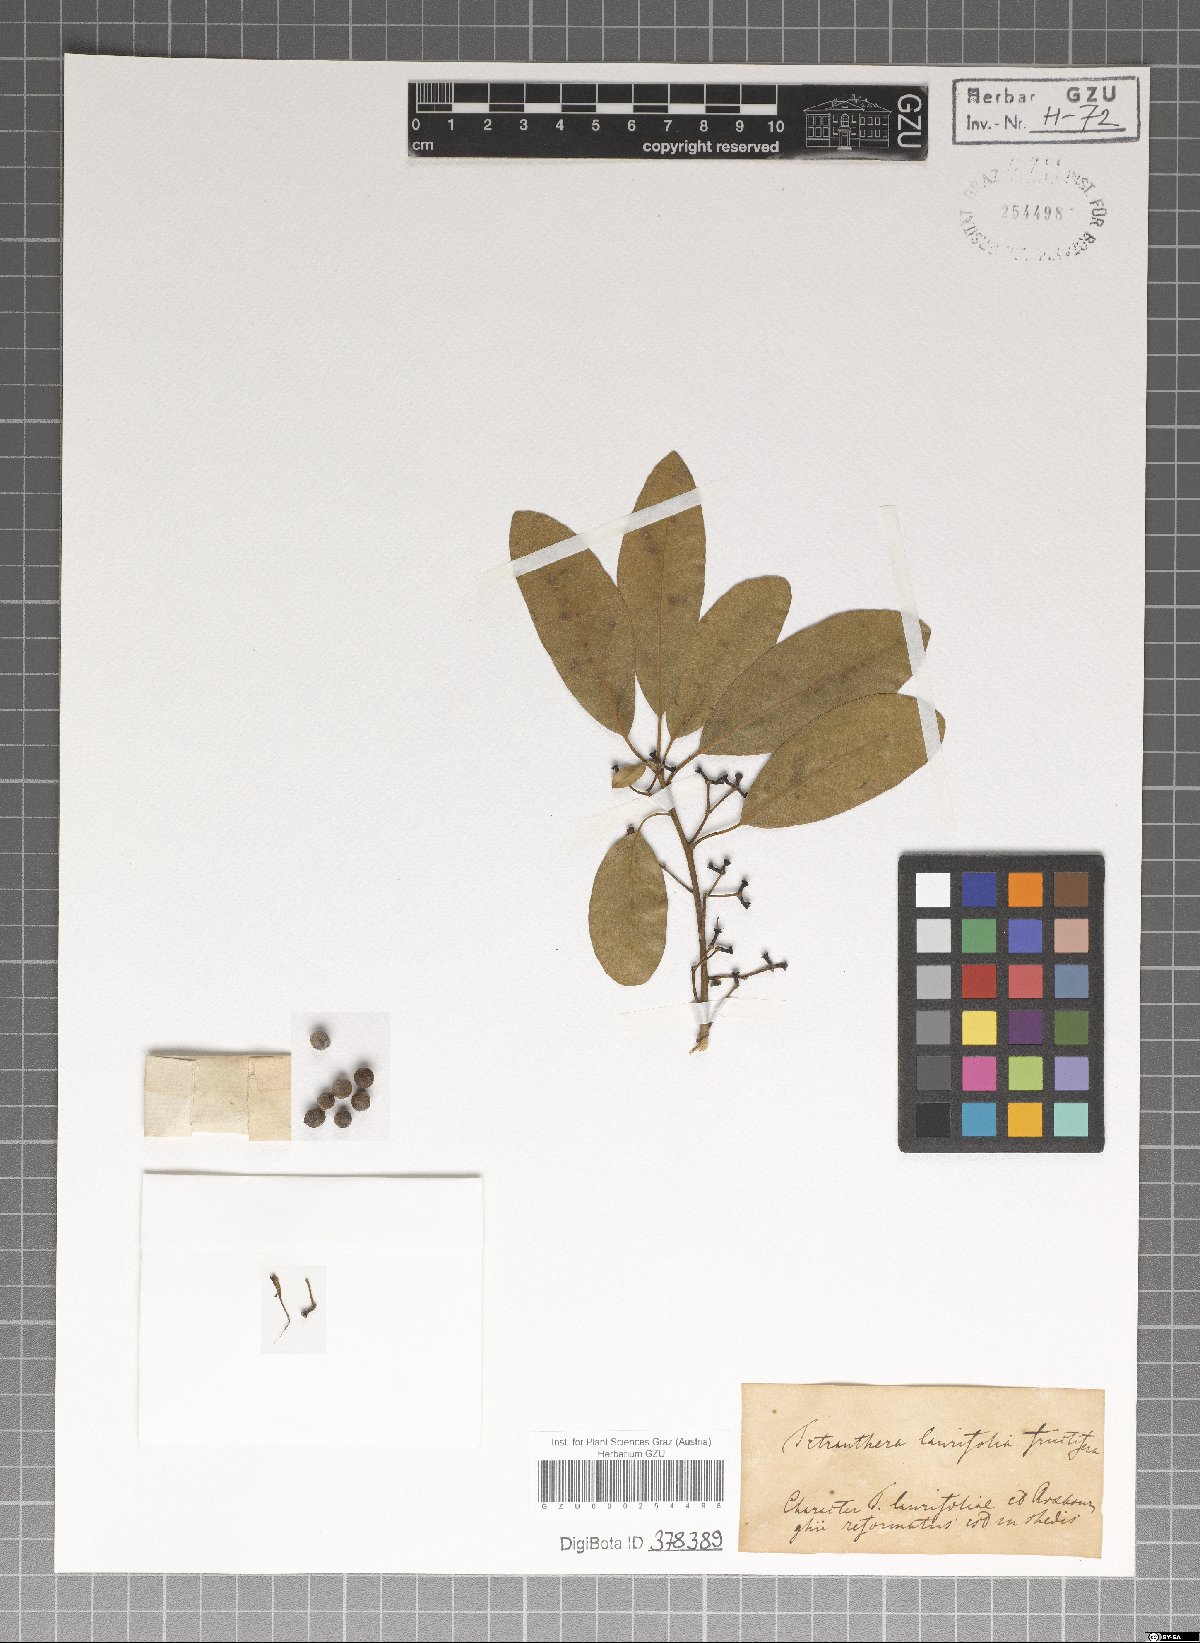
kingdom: Plantae
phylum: Tracheophyta
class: Magnoliopsida
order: Laurales
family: Lauraceae
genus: Litsea
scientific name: Litsea glutinosa
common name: Indian-laurel
